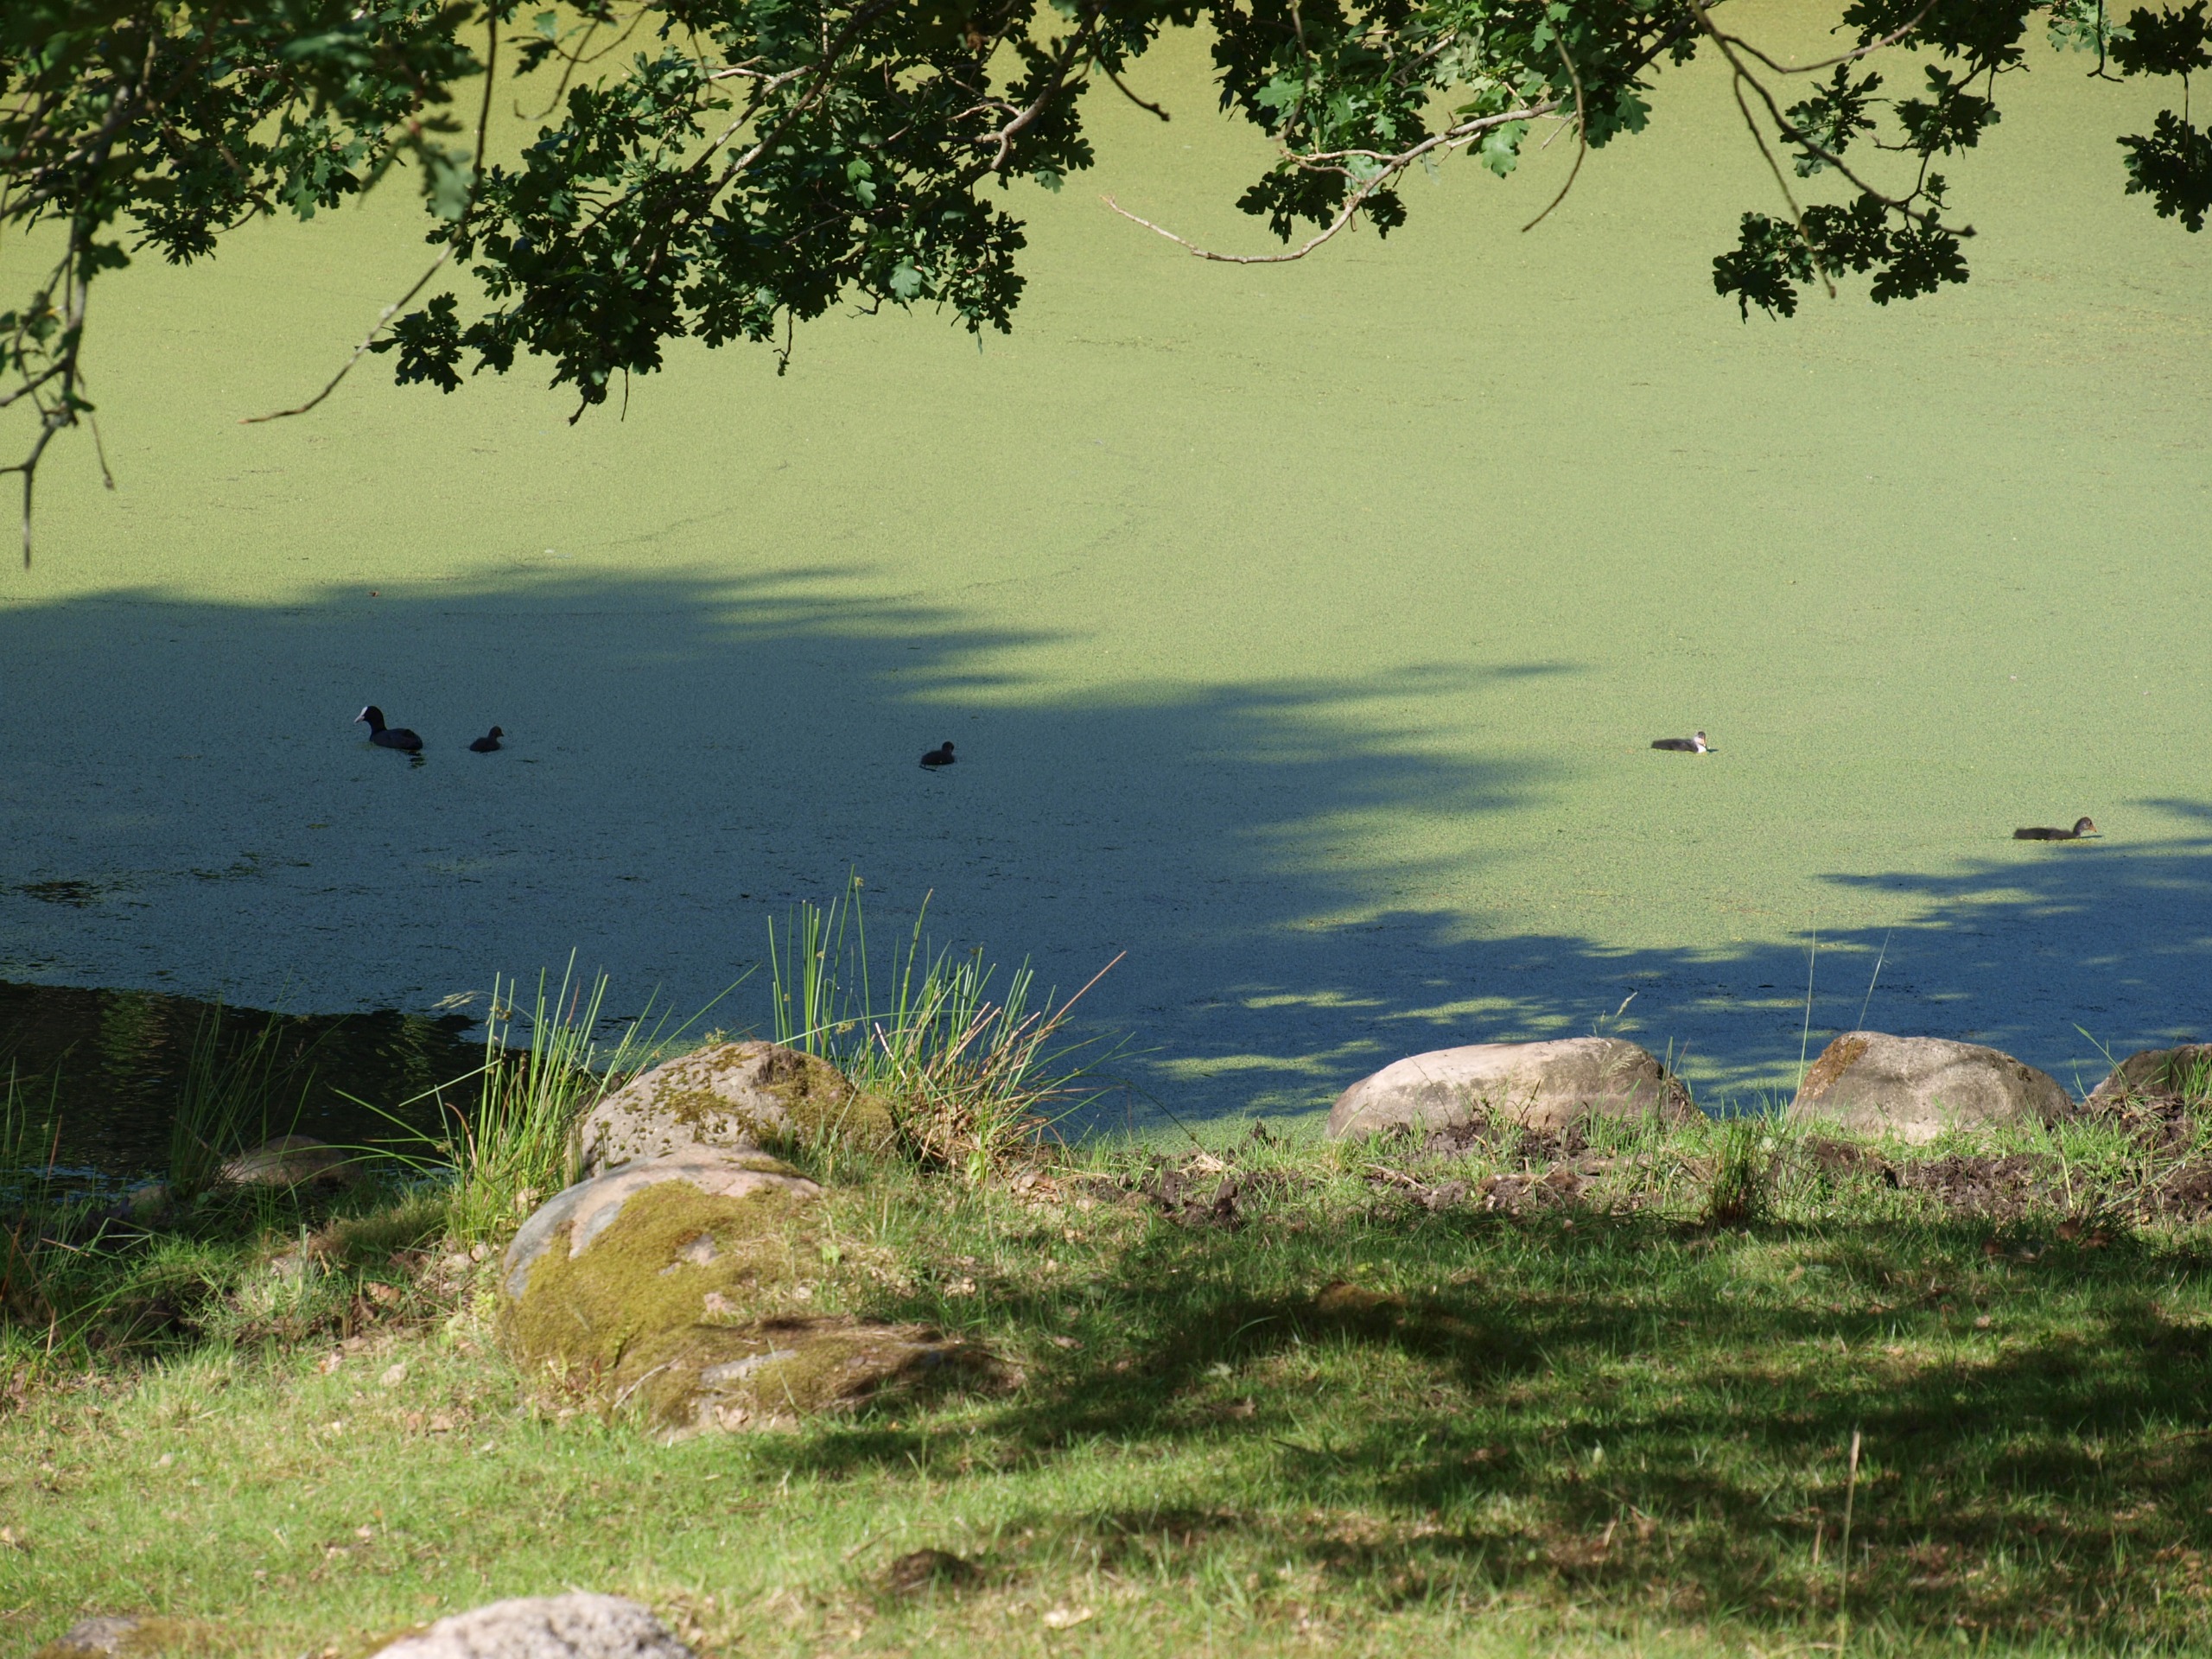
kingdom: Animalia
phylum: Chordata
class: Aves
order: Gruiformes
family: Rallidae
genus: Fulica
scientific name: Fulica atra
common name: Blishøne
